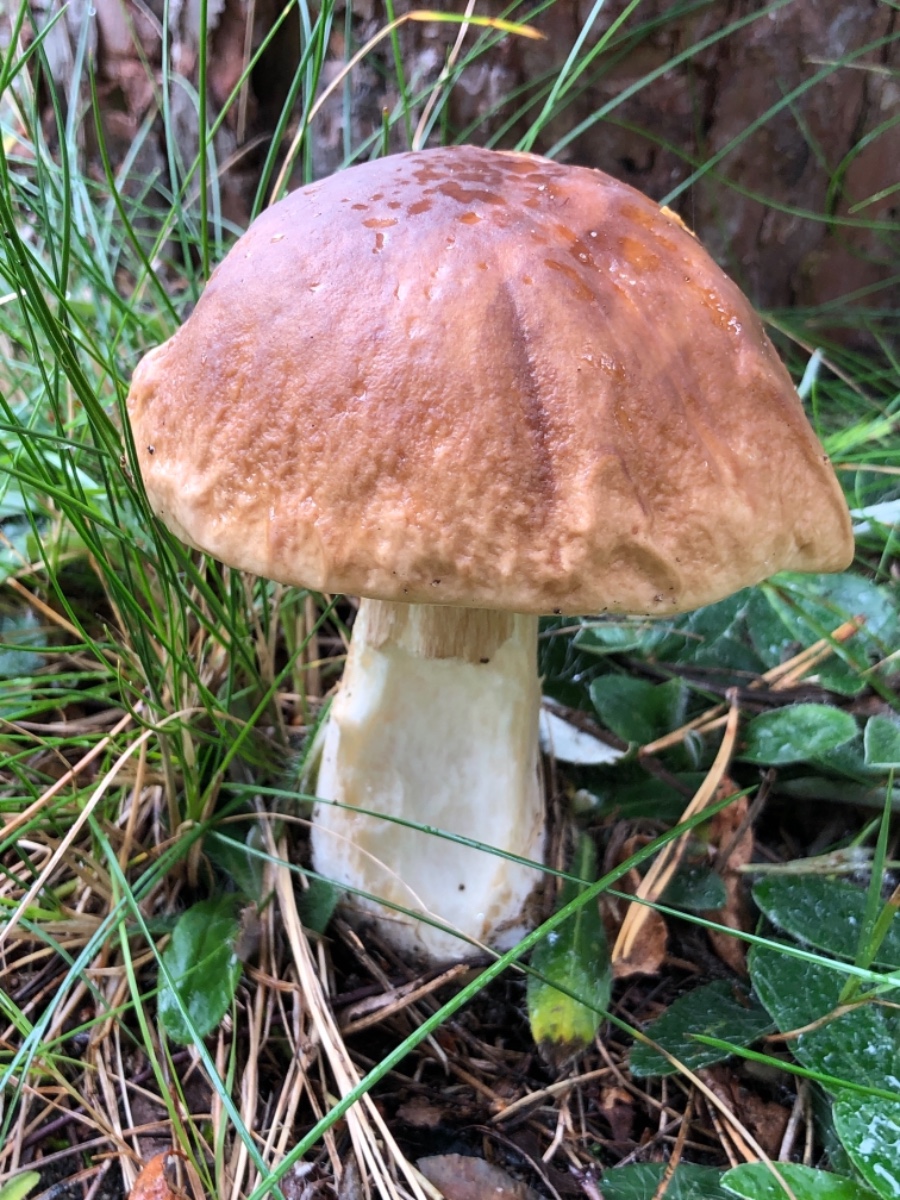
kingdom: Fungi
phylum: Basidiomycota
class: Agaricomycetes
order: Boletales
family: Boletaceae
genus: Boletus
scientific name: Boletus edulis
